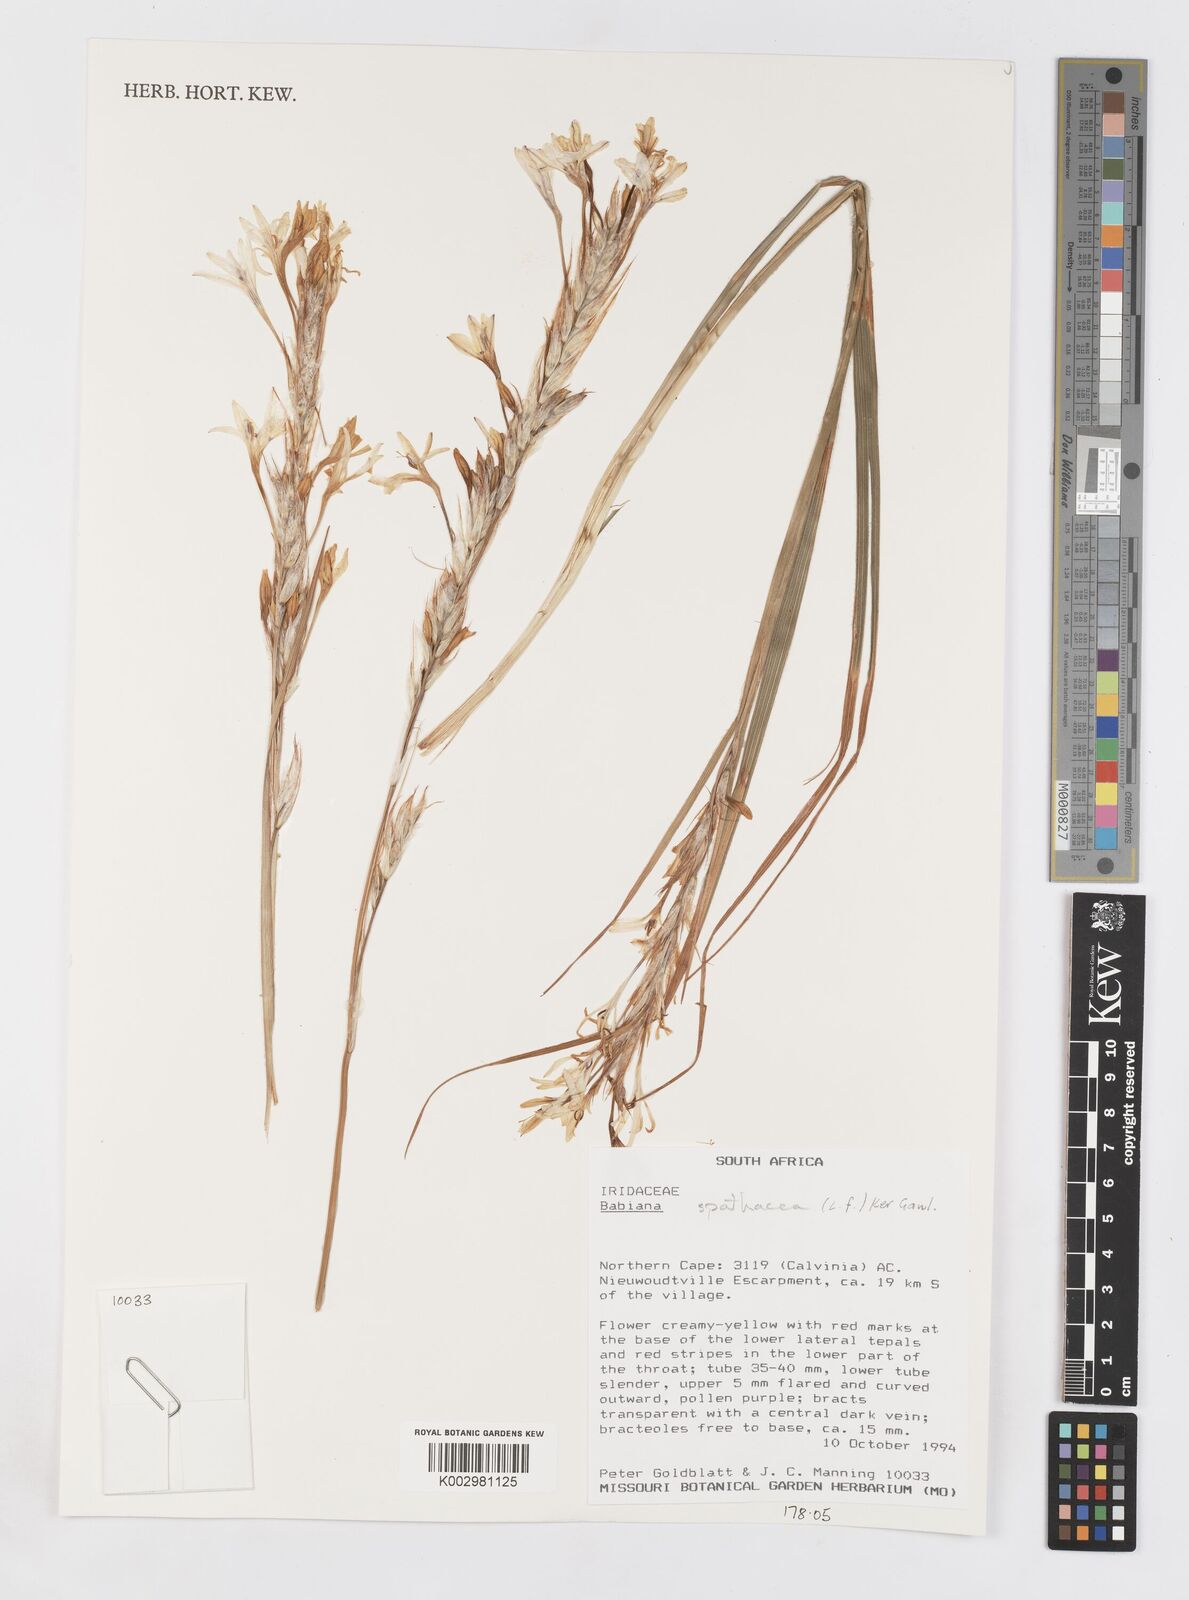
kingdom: Plantae
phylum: Tracheophyta
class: Liliopsida
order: Asparagales
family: Iridaceae
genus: Babiana
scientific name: Babiana spathacea
